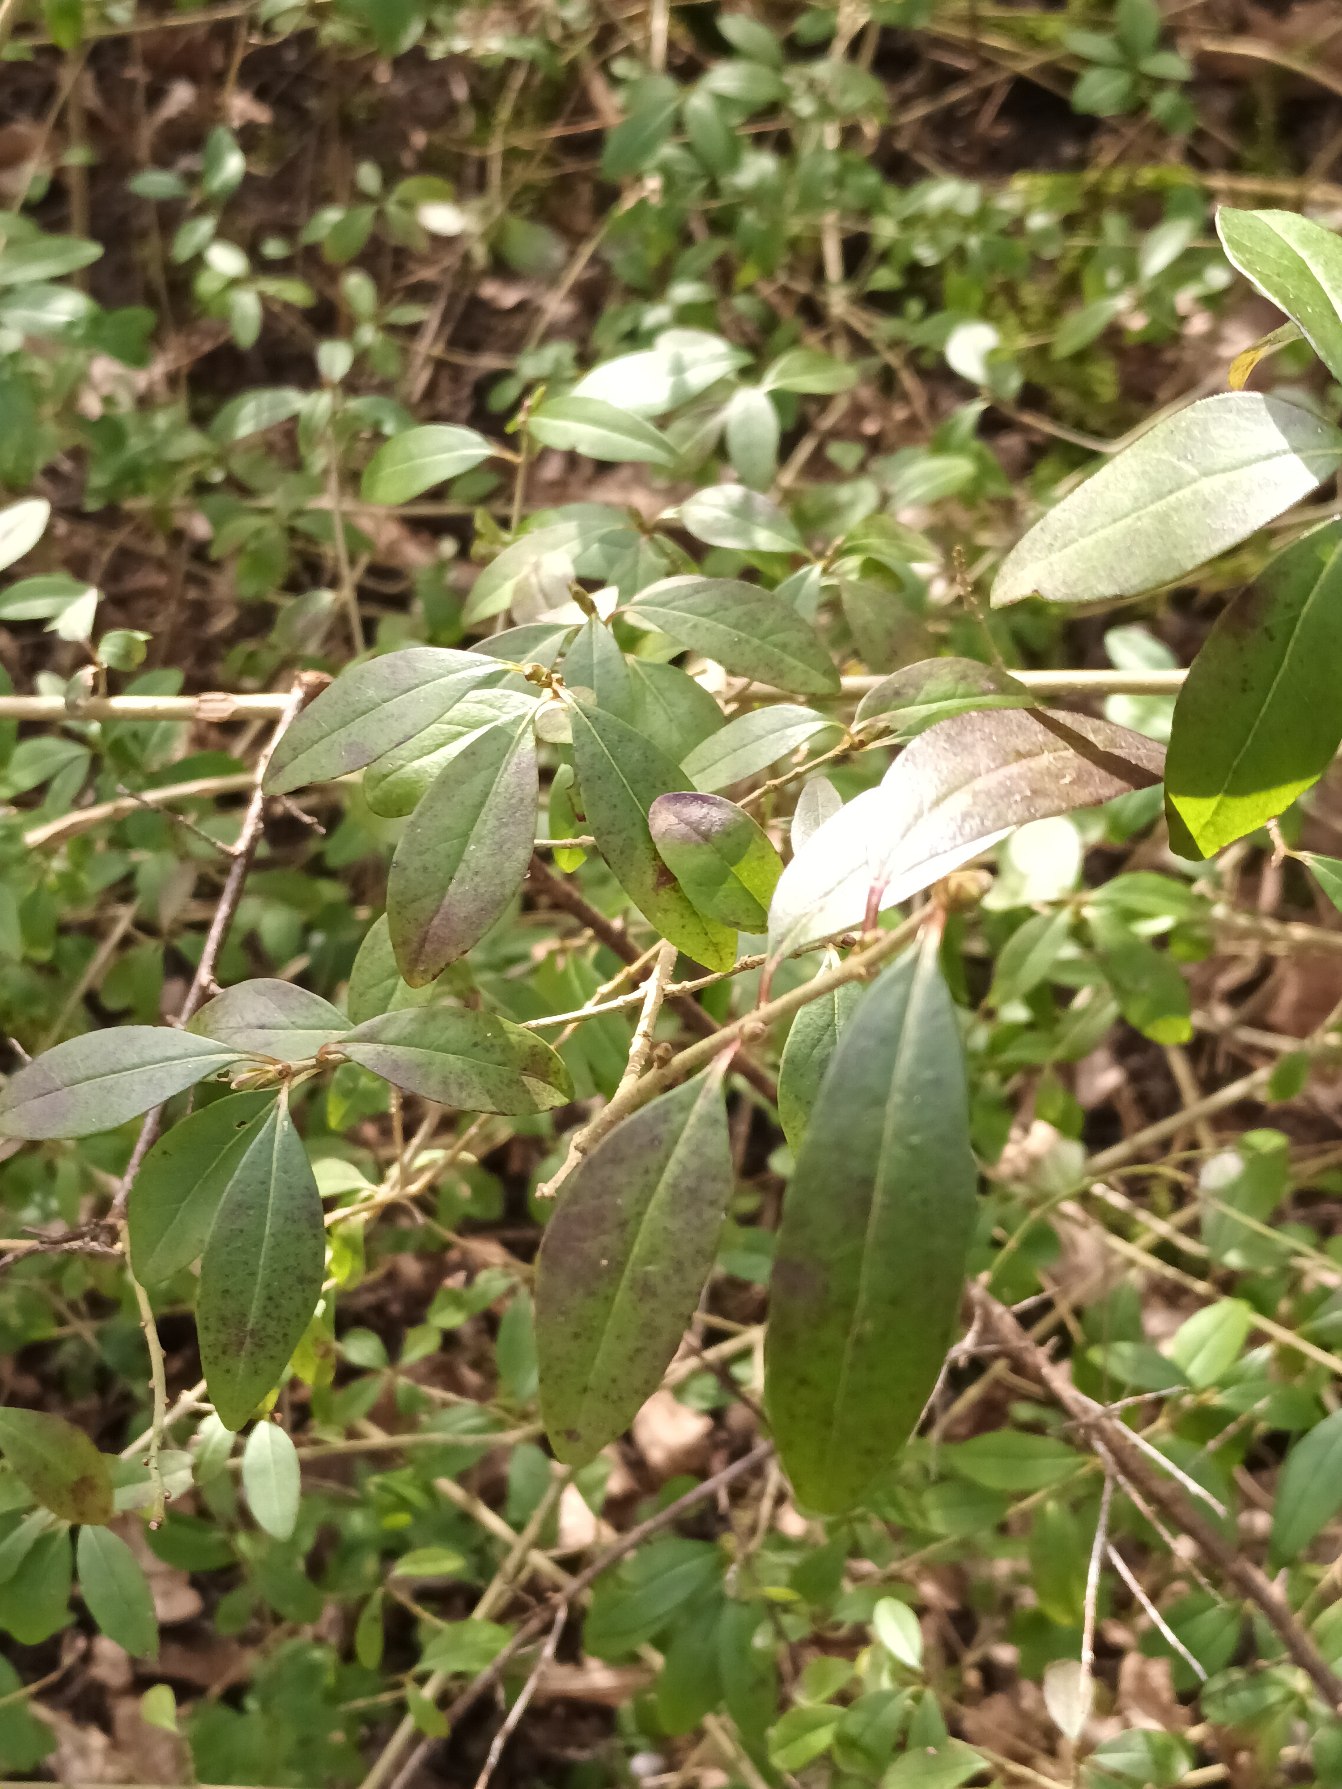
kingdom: Plantae
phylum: Tracheophyta
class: Magnoliopsida
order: Lamiales
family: Oleaceae
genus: Ligustrum
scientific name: Ligustrum vulgare
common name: Liguster
